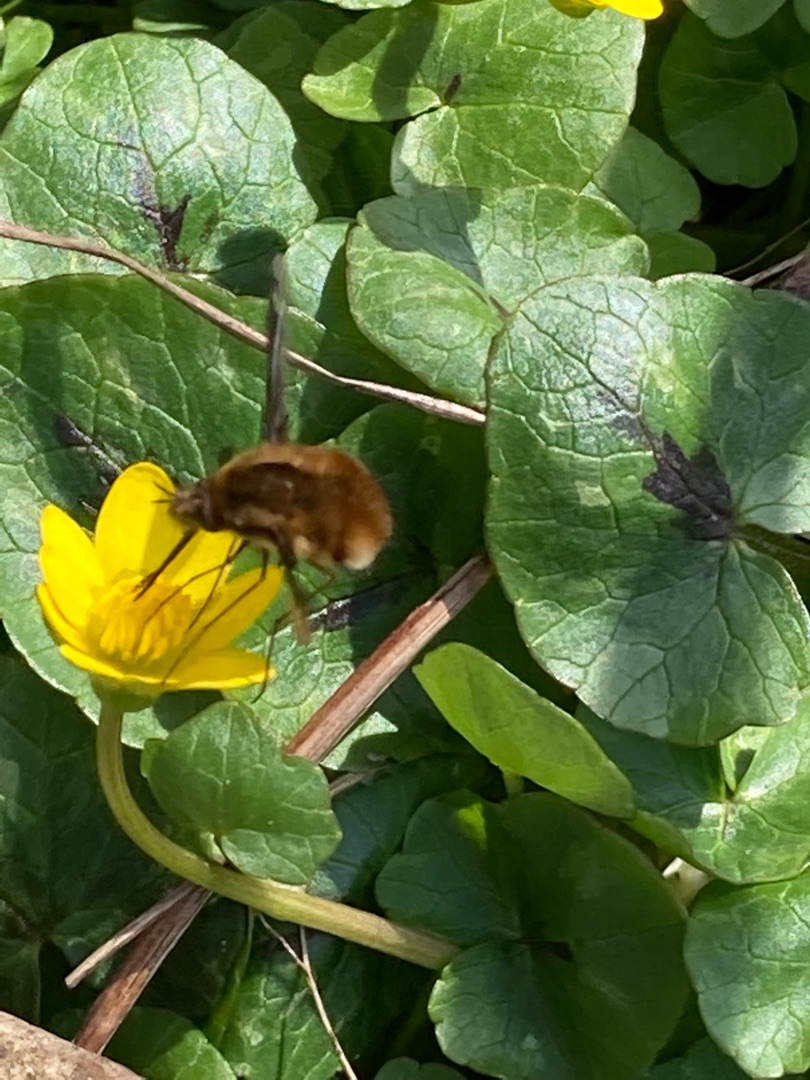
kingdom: Animalia
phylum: Arthropoda
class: Insecta
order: Diptera
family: Bombyliidae
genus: Bombylius
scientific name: Bombylius major
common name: Stor humleflue
